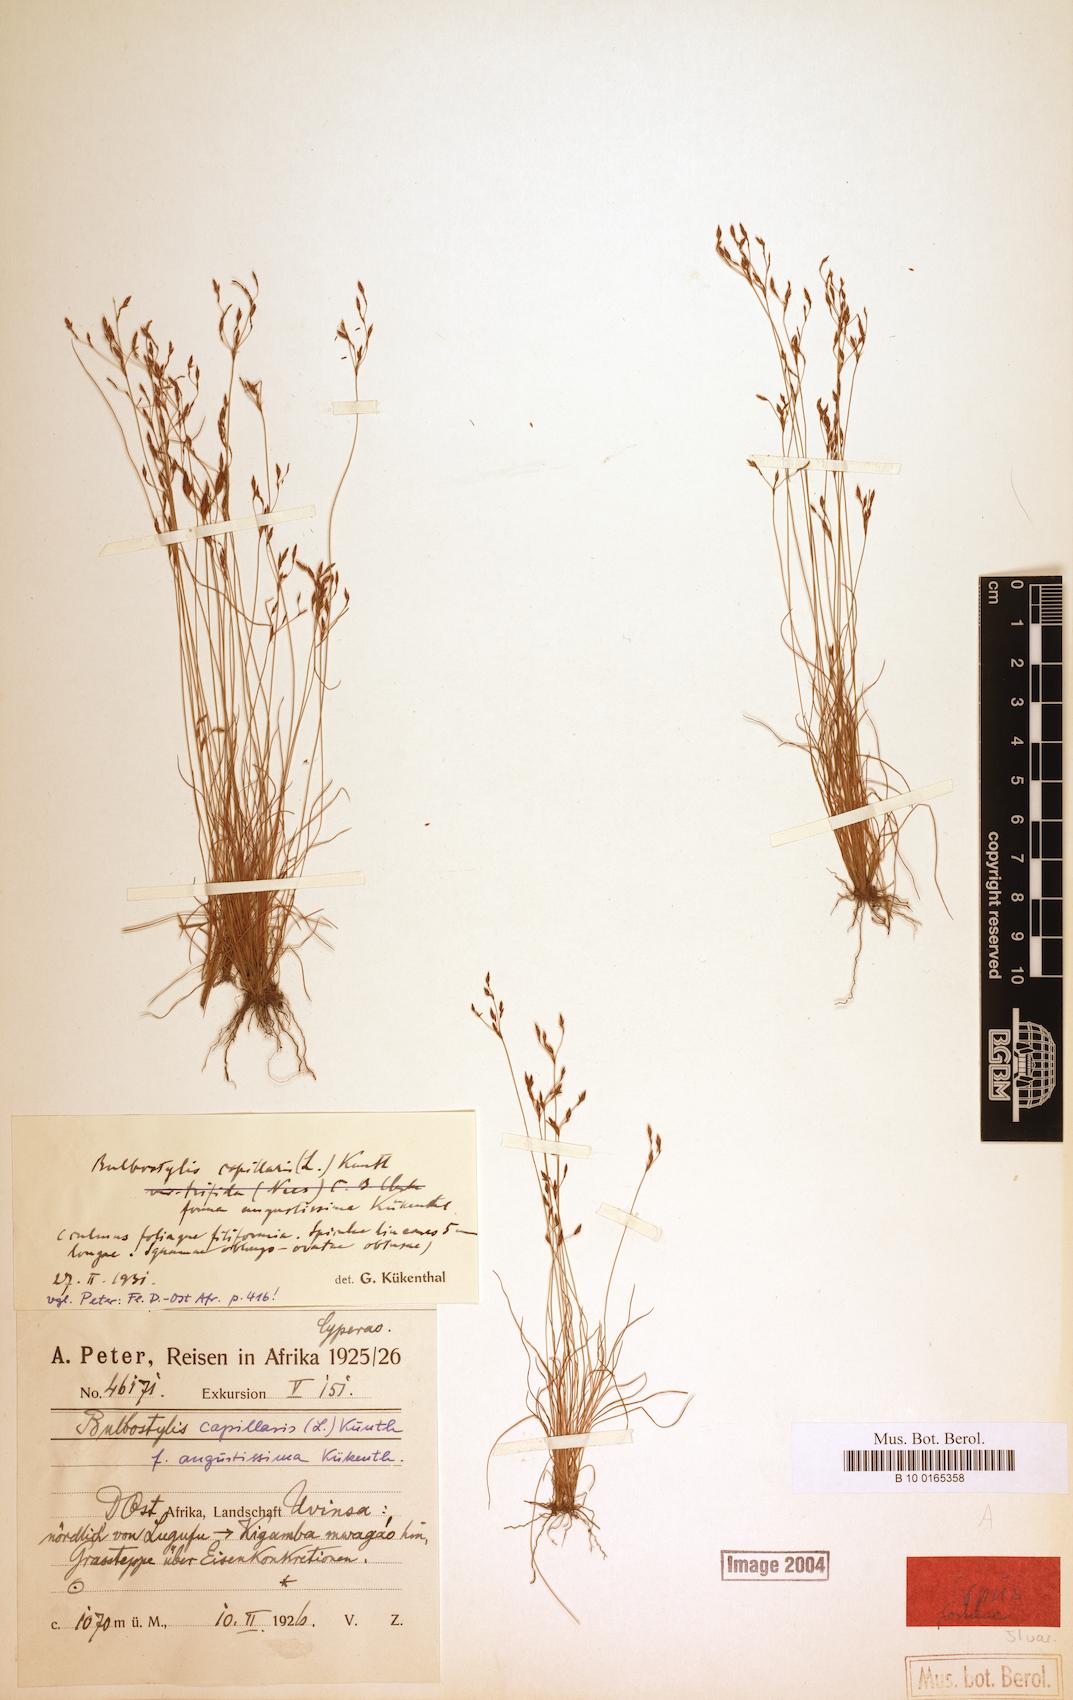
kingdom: Plantae
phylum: Tracheophyta
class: Liliopsida
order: Poales
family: Cyperaceae
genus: Bulbostylis
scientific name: Bulbostylis capillaris
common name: Densetuft hairsedge
